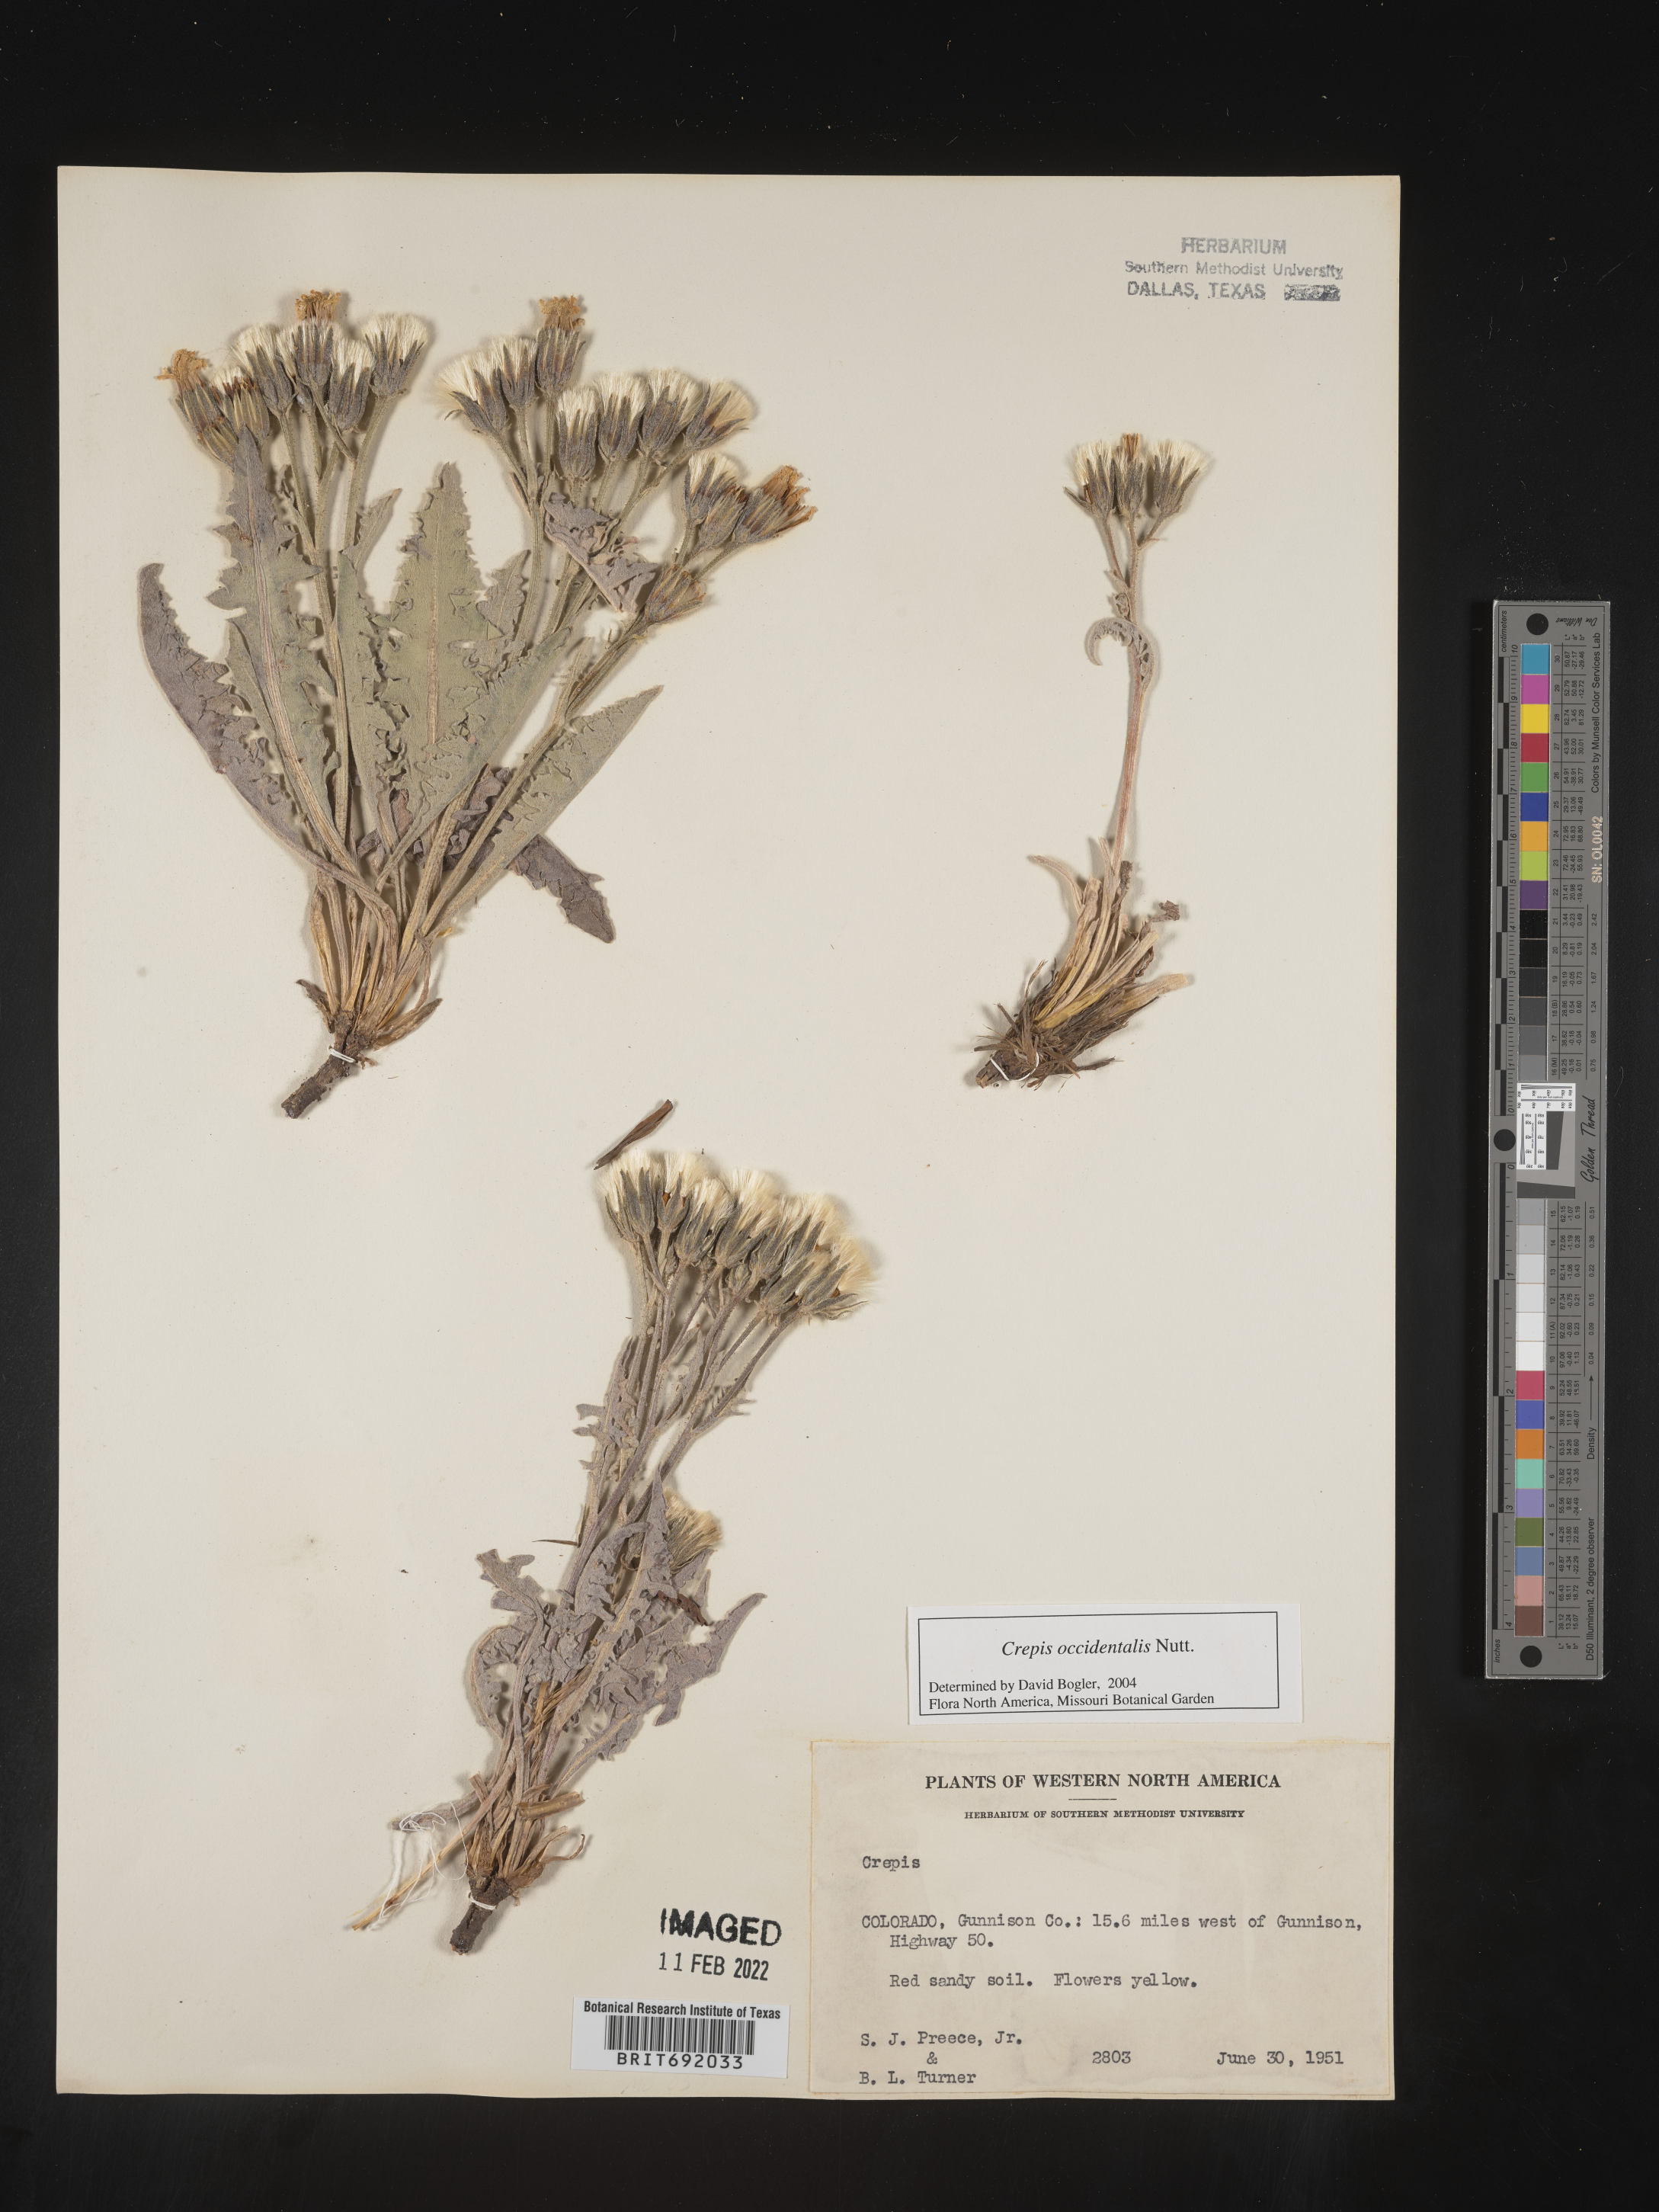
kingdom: Plantae
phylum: Tracheophyta
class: Magnoliopsida
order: Asterales
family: Asteraceae
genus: Crepis
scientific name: Crepis occidentalis
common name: Gray hawk's-beard
